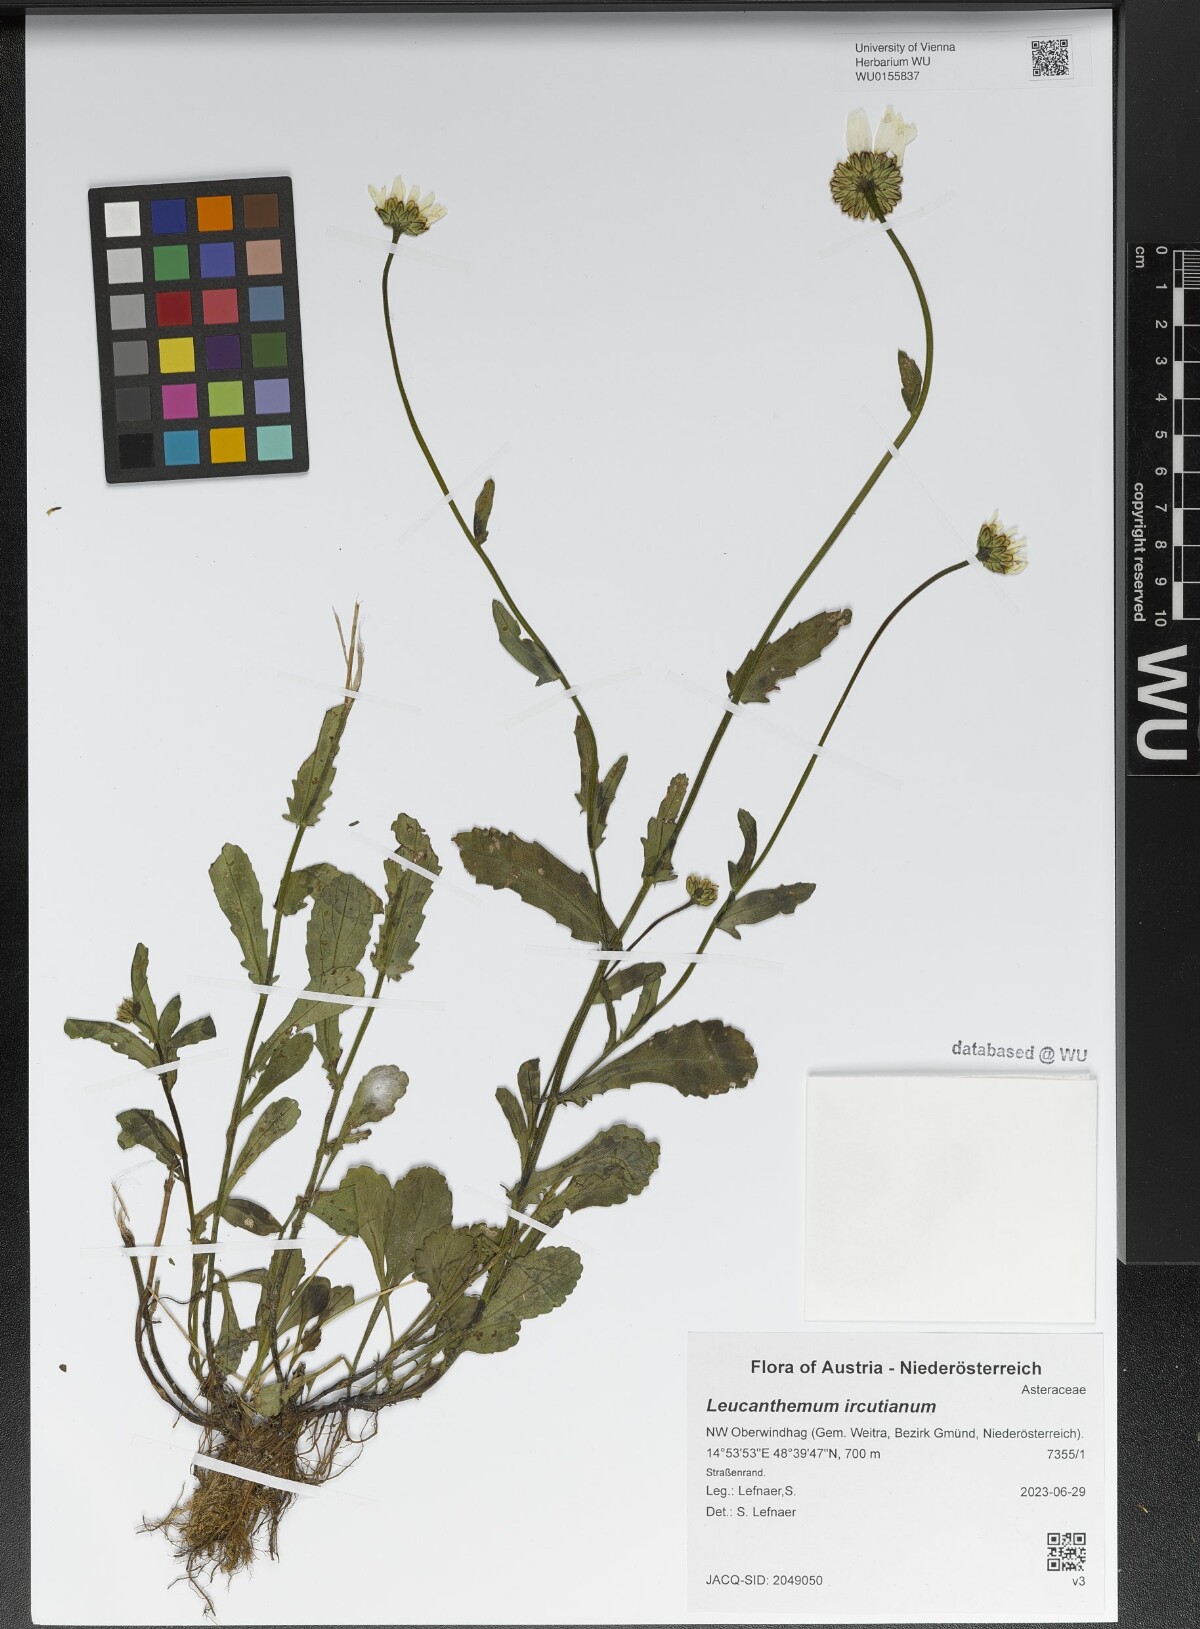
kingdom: Plantae
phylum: Tracheophyta
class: Magnoliopsida
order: Asterales
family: Asteraceae
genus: Leucanthemum
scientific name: Leucanthemum ircutianum
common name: Daisy
